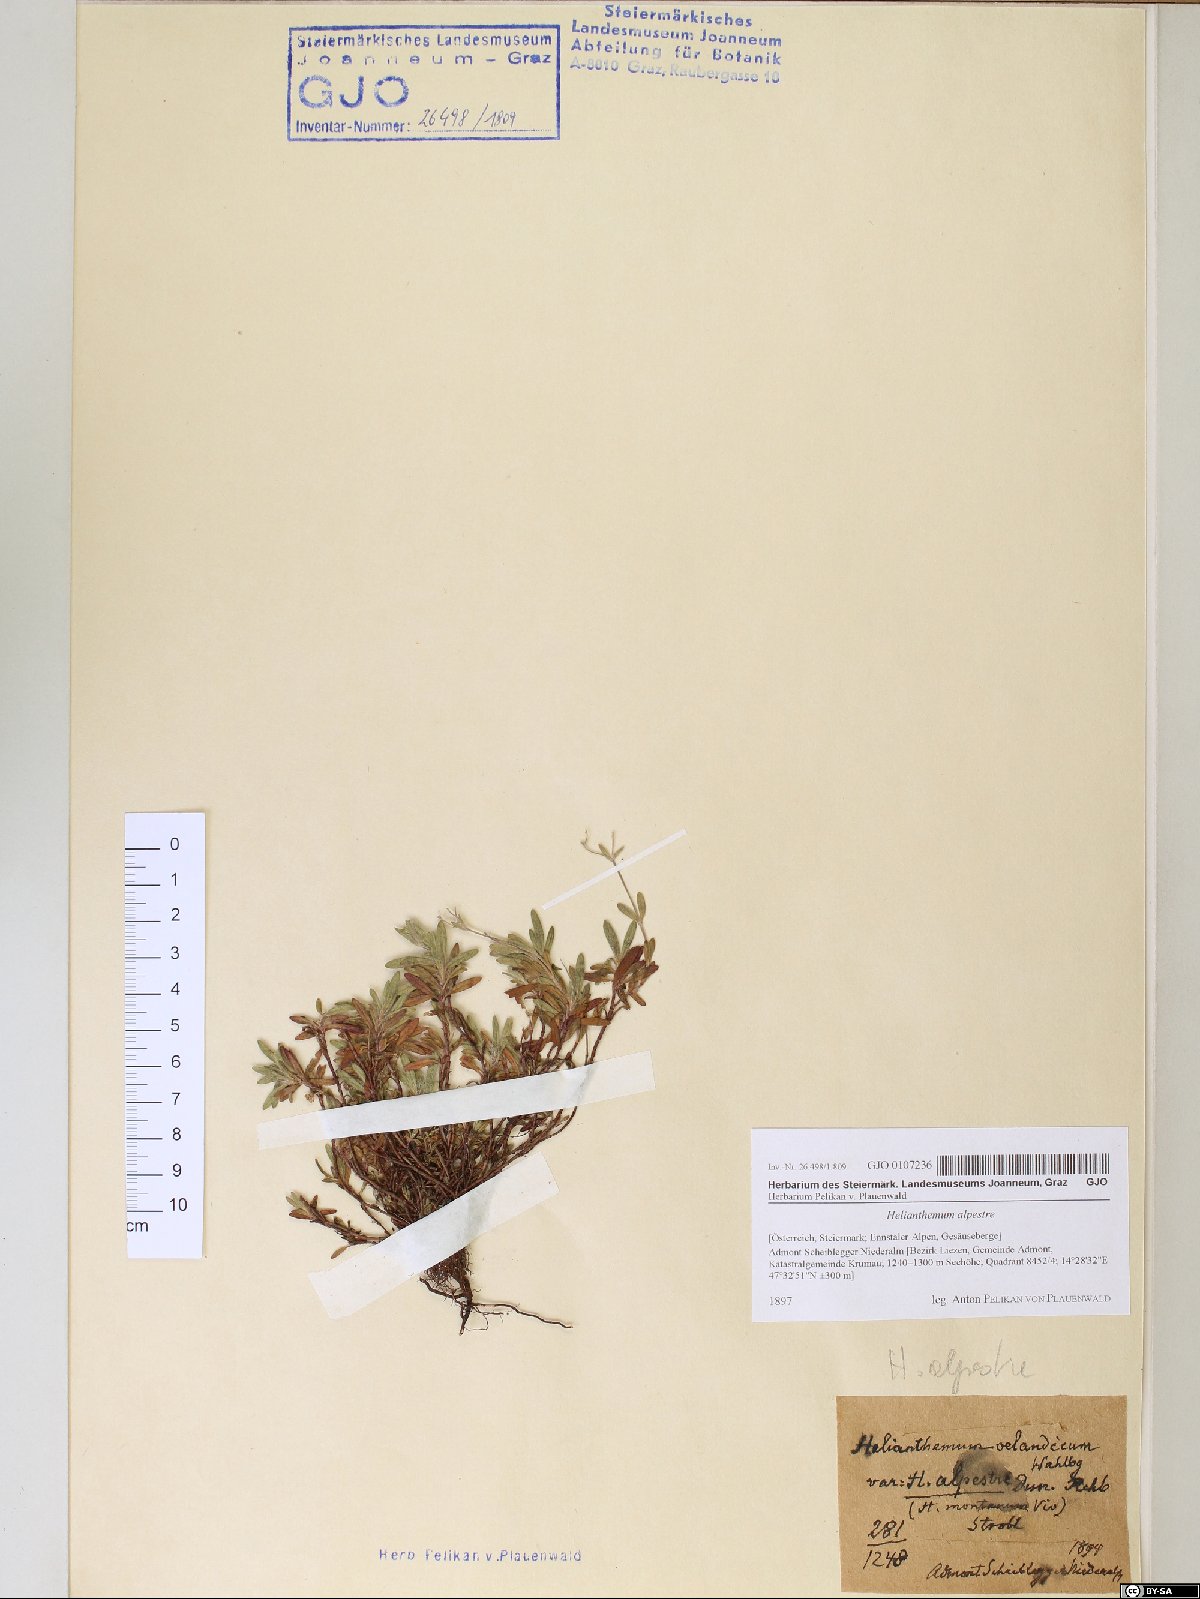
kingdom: Plantae
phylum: Tracheophyta
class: Magnoliopsida
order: Malvales
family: Cistaceae
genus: Helianthemum
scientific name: Helianthemum alpestre
